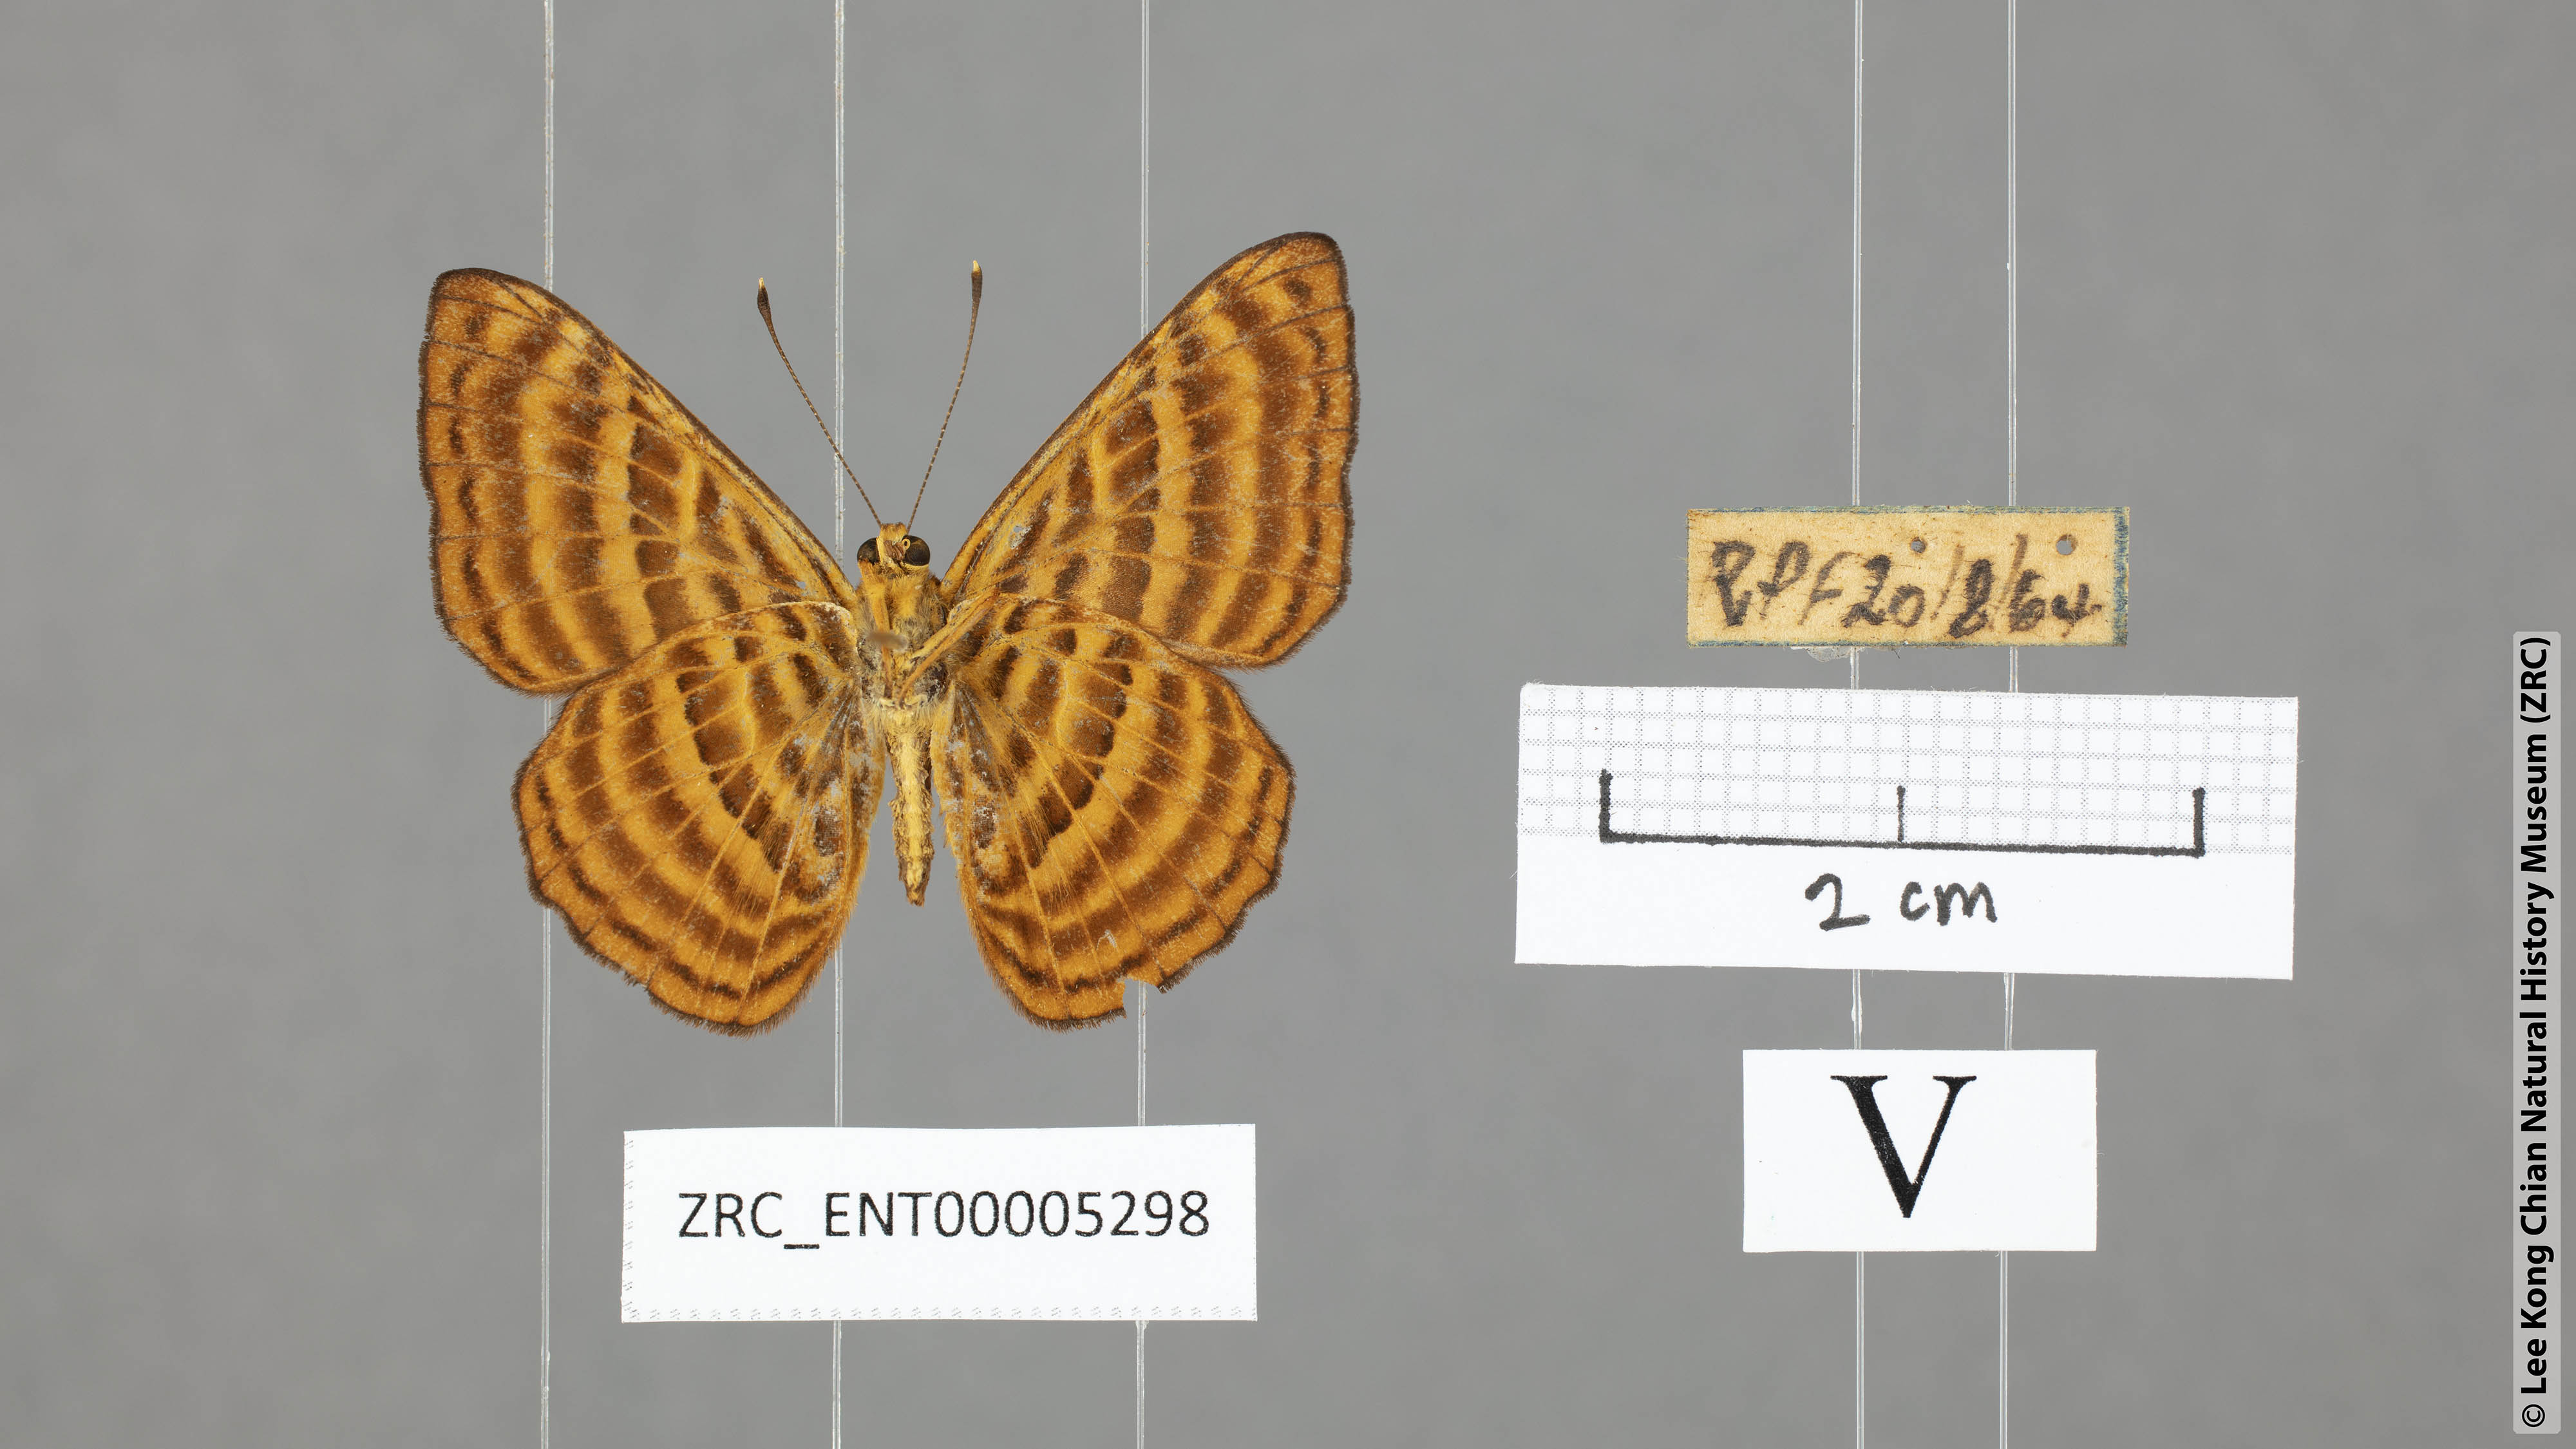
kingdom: Animalia
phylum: Arthropoda
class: Insecta
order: Lepidoptera
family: Riodinidae
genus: Zemeros
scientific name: Zemeros emesoides
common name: Malay punchinello
